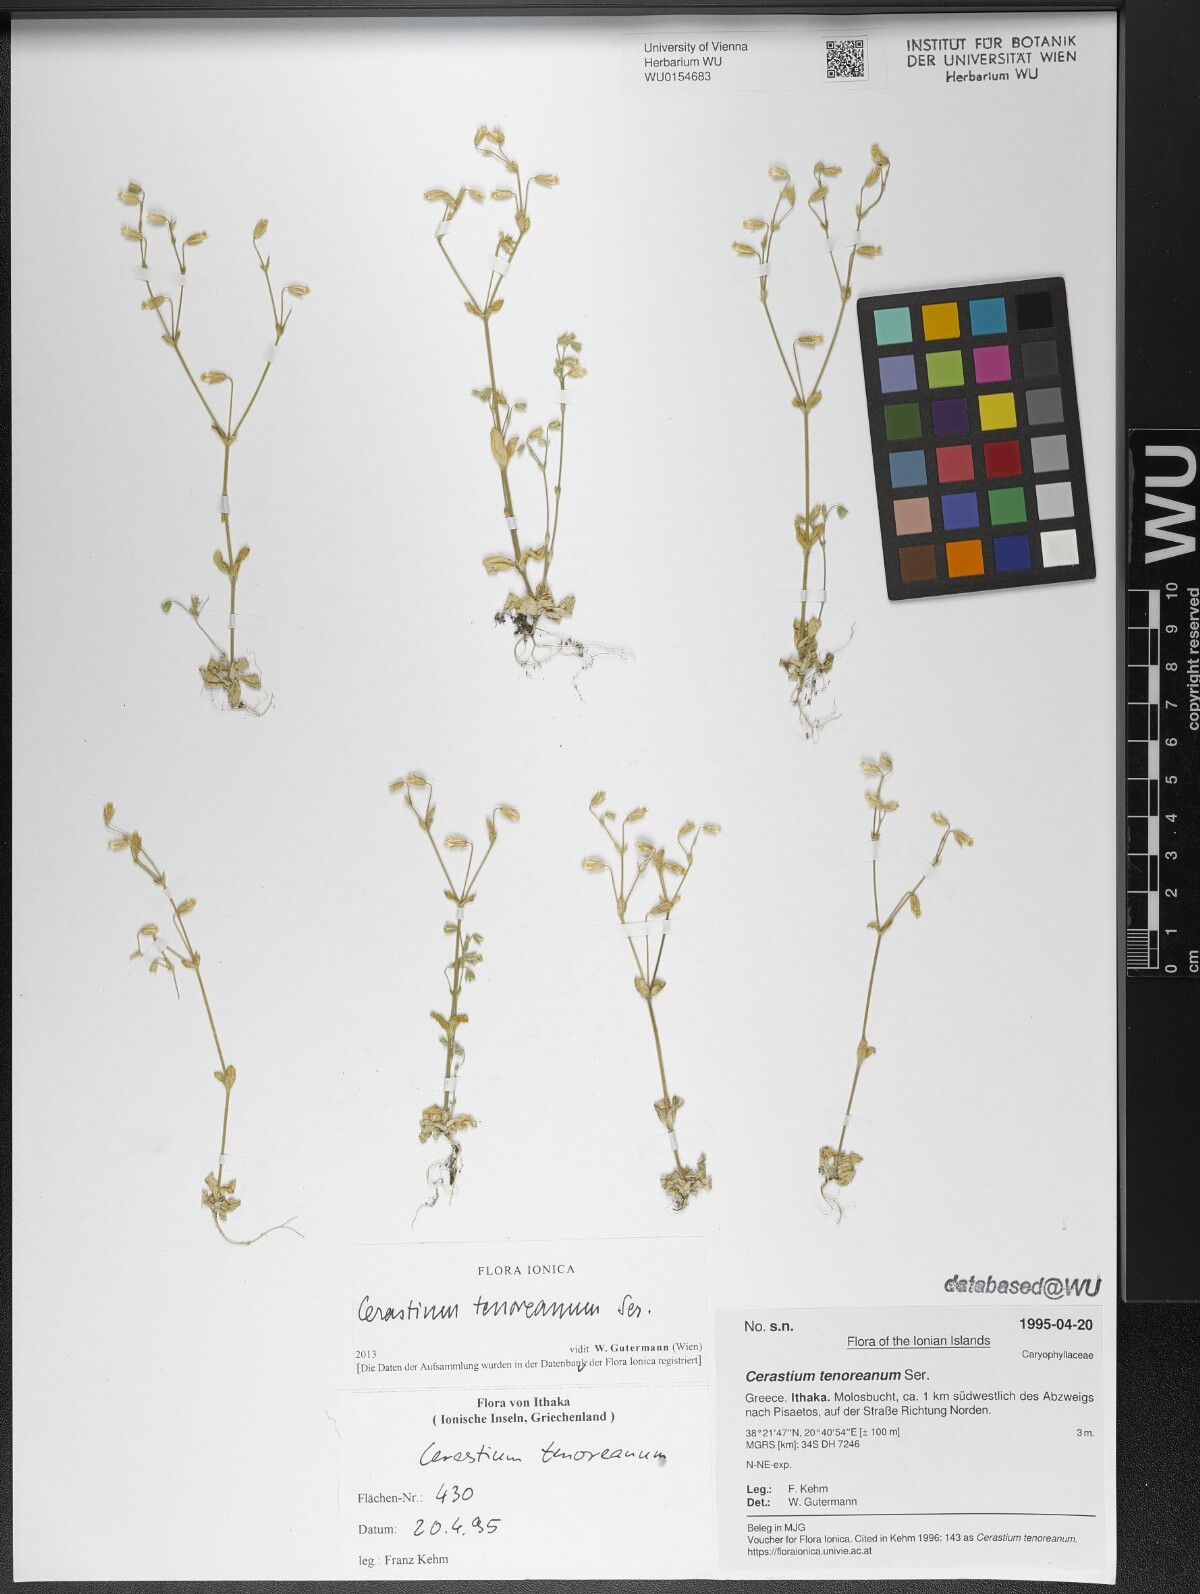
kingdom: Plantae
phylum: Tracheophyta
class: Magnoliopsida
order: Caryophyllales
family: Caryophyllaceae
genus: Cerastium
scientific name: Cerastium tenoreanum
